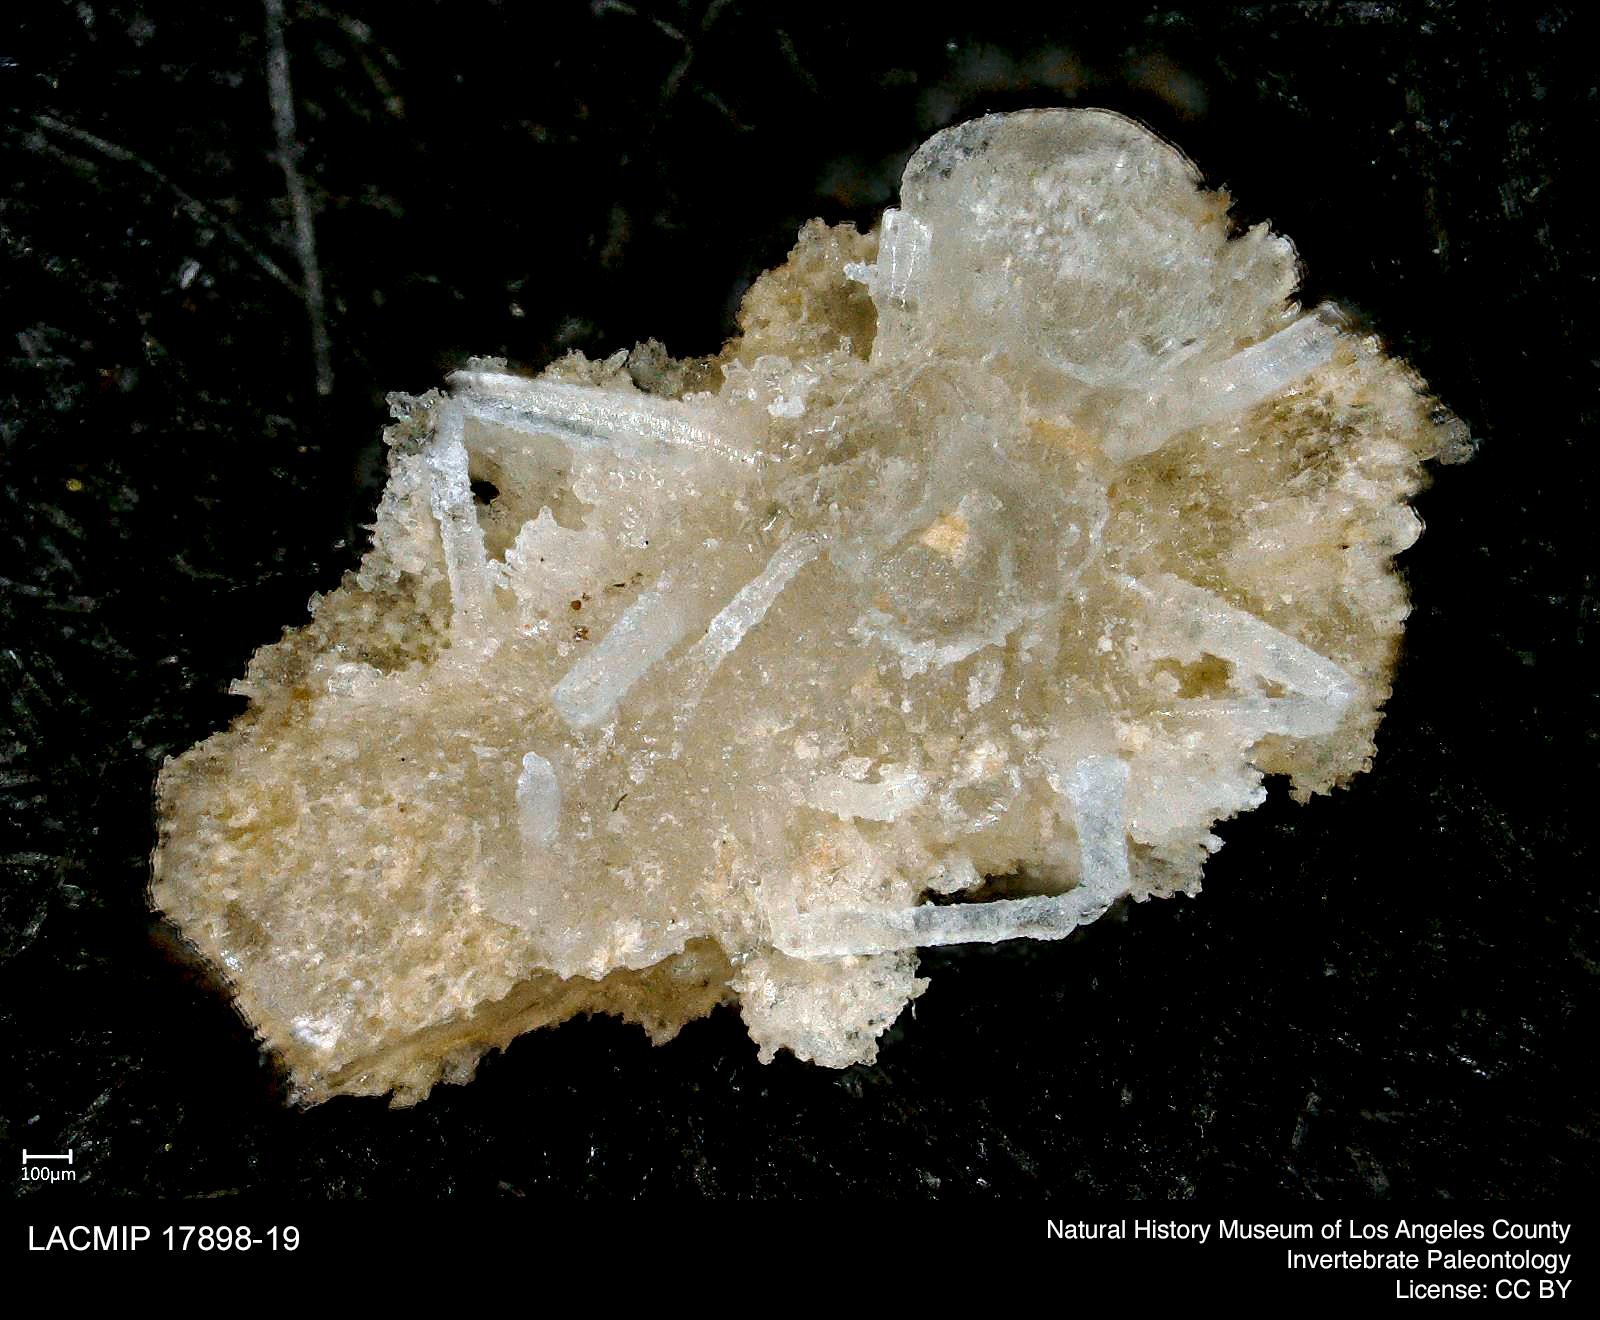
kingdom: Animalia
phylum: Arthropoda
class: Arachnida
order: Araneae
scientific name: Araneae
